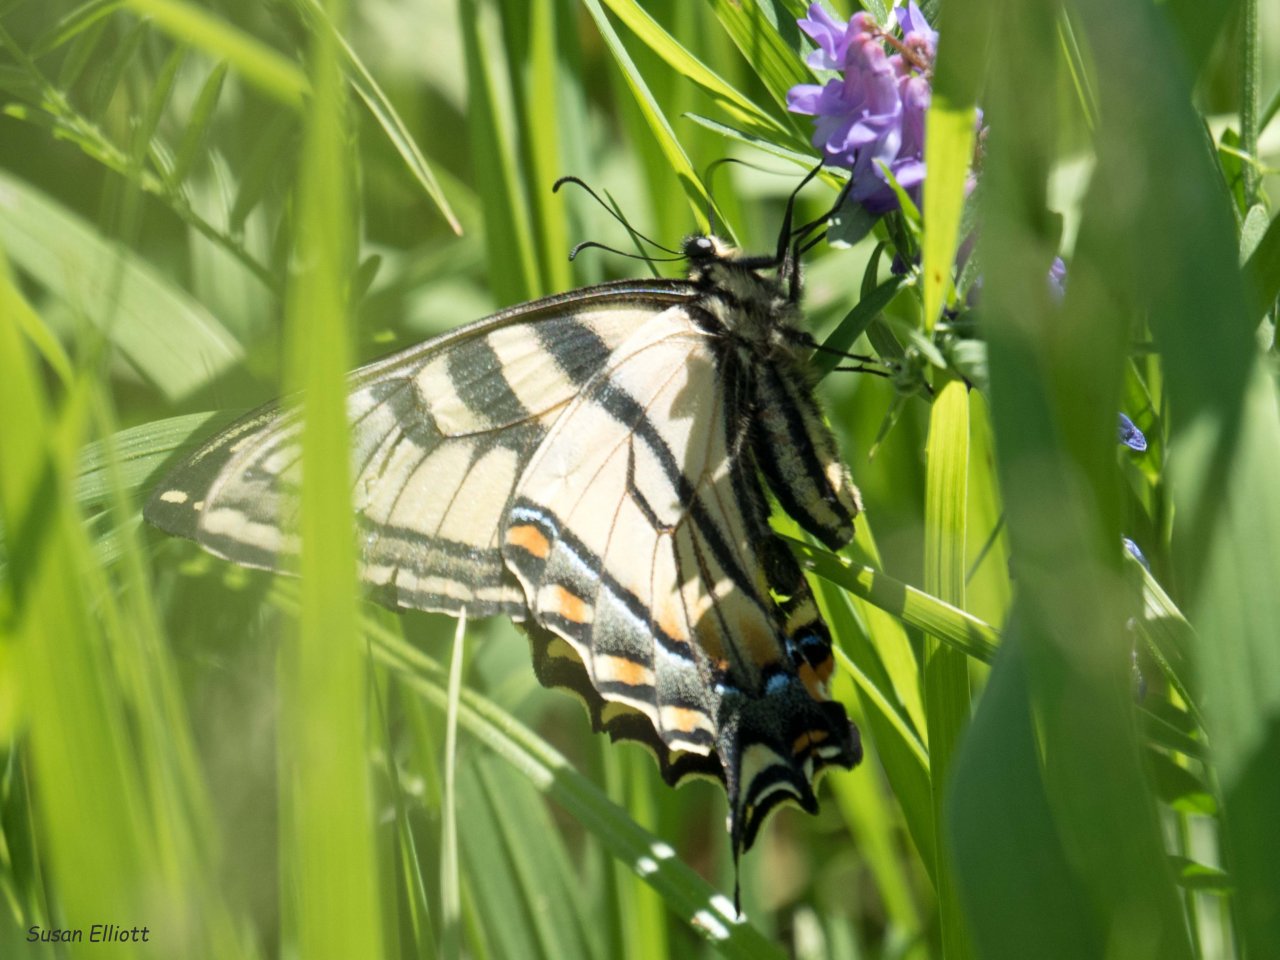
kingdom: Animalia
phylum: Arthropoda
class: Insecta
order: Lepidoptera
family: Papilionidae
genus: Pterourus
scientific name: Pterourus canadensis
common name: Canadian Tiger Swallowtail
